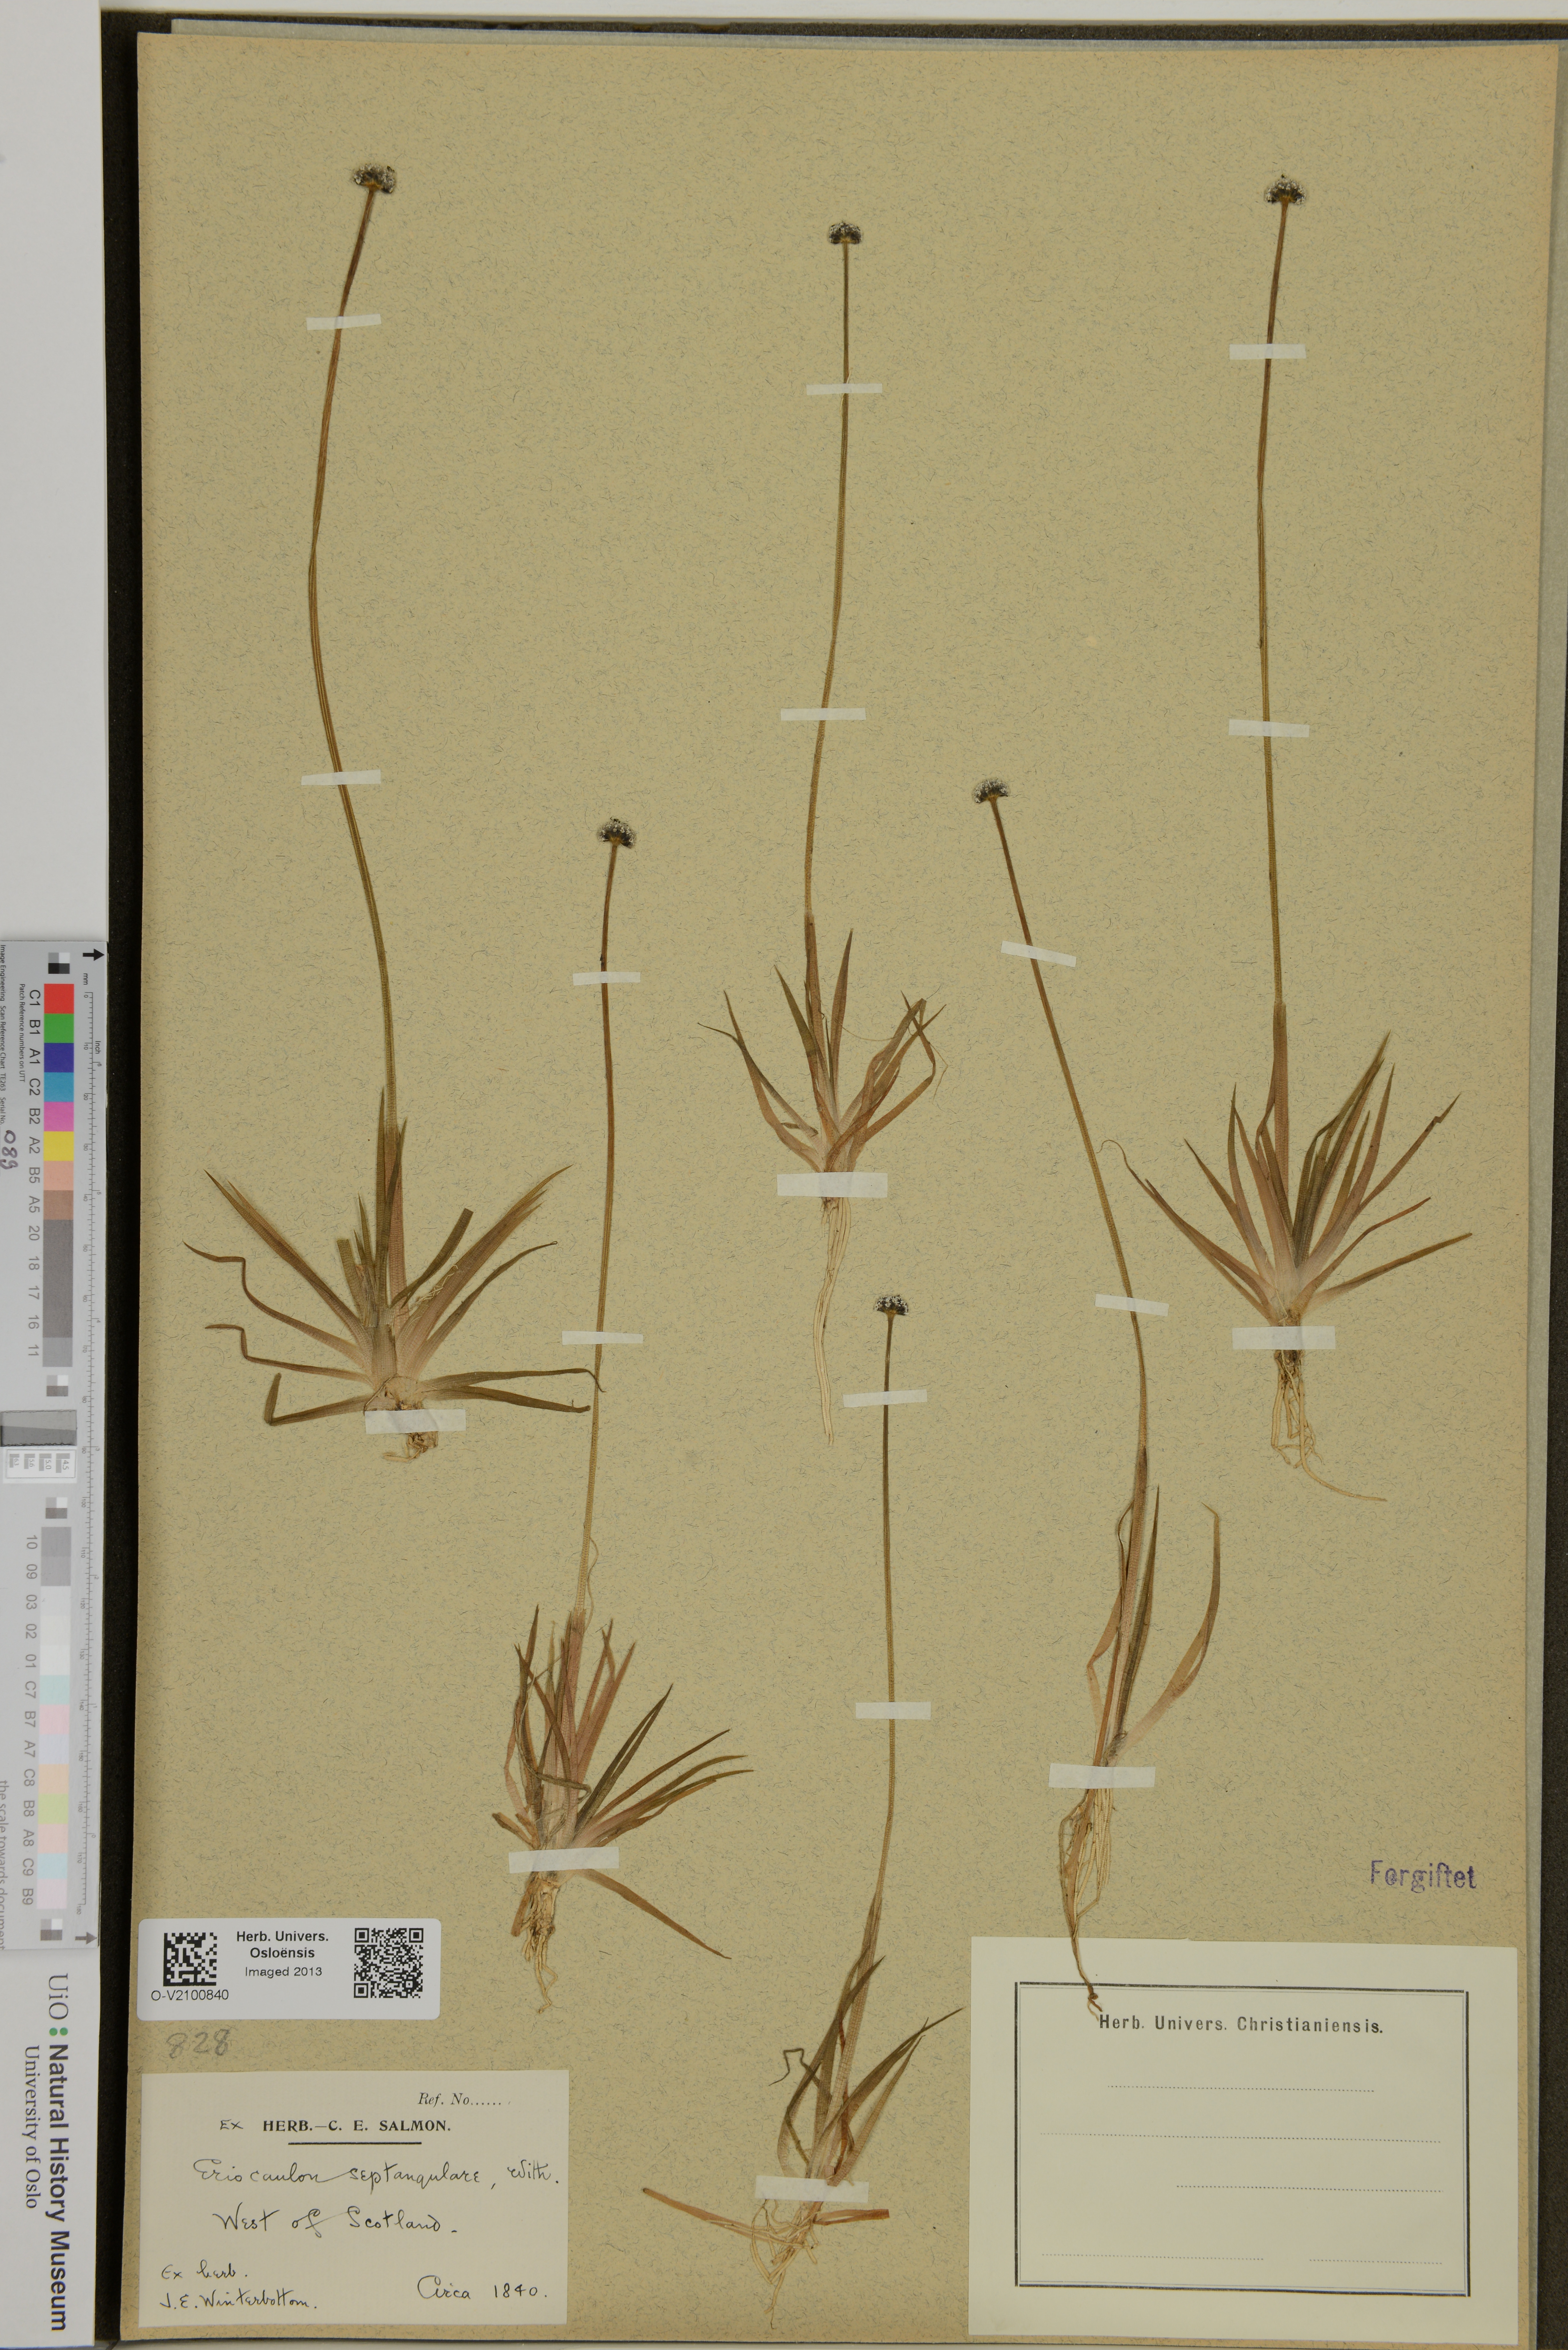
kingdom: Plantae
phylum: Tracheophyta
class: Liliopsida
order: Poales
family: Eriocaulaceae
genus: Eriocaulon
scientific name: Eriocaulon aquaticum
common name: Pipewort
